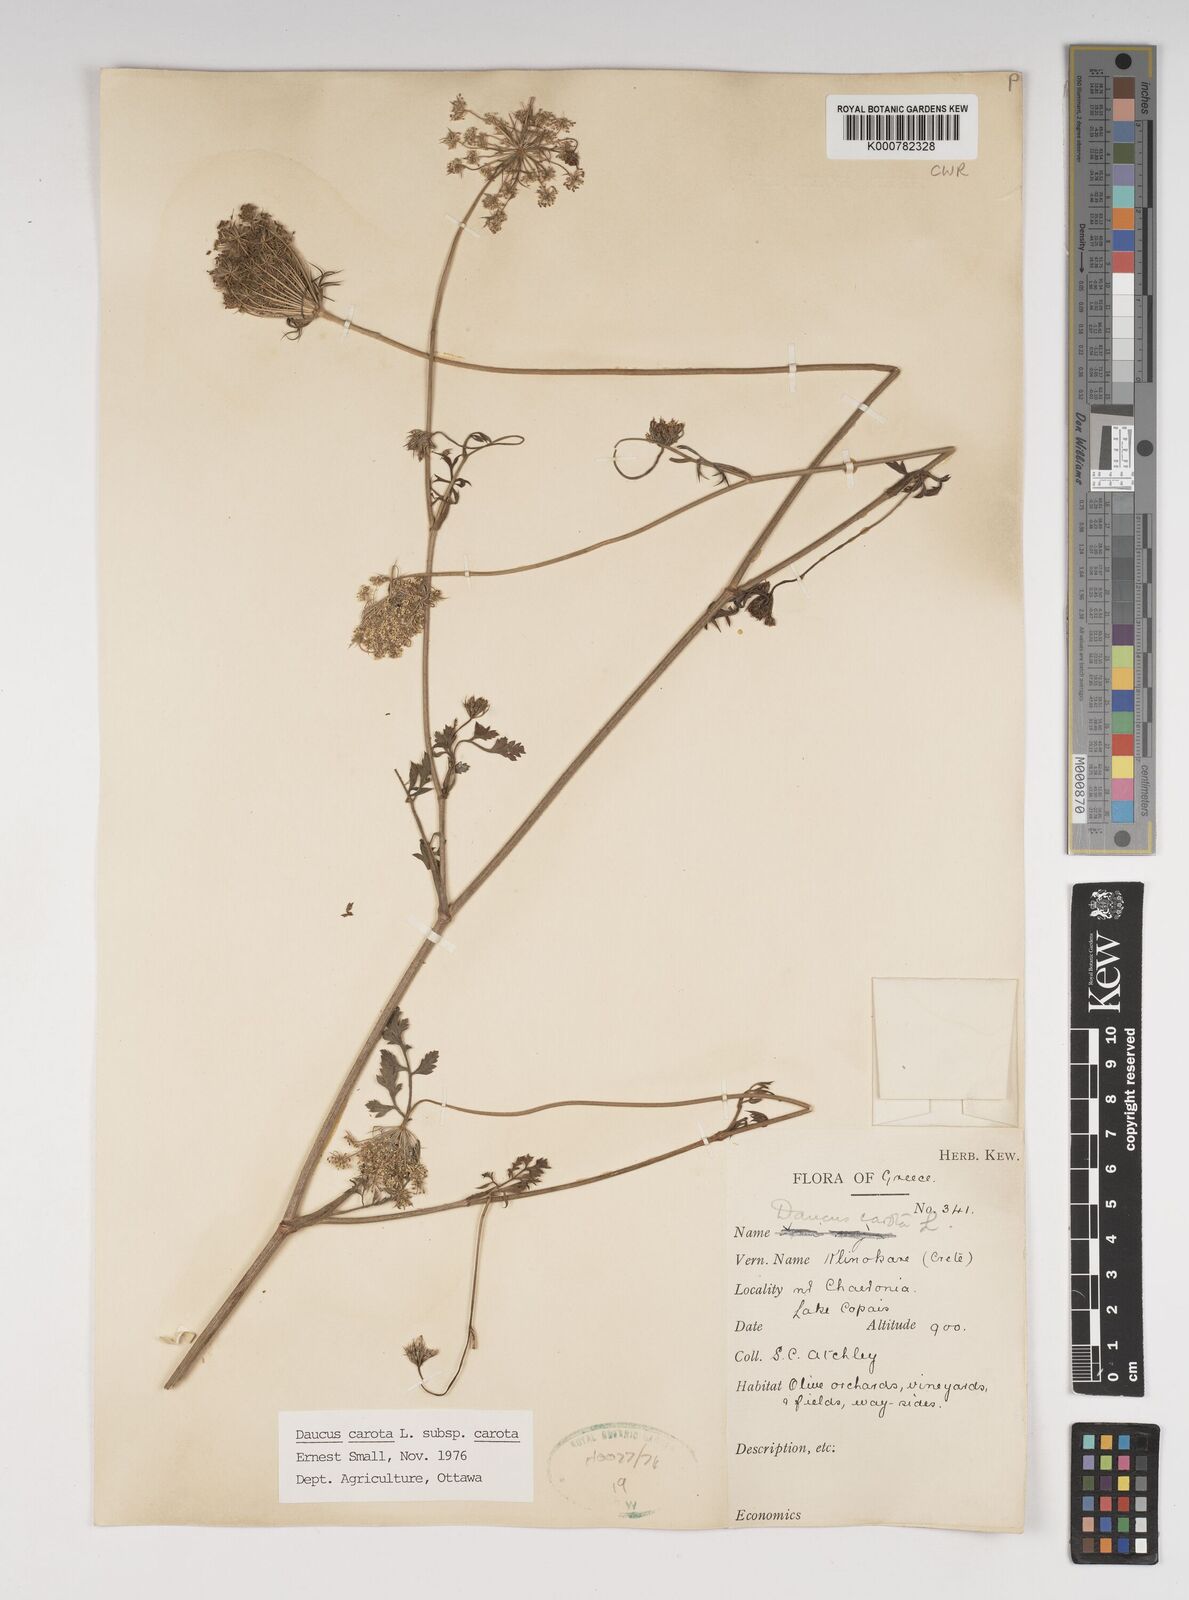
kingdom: Plantae
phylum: Tracheophyta
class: Magnoliopsida
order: Apiales
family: Apiaceae
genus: Daucus
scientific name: Daucus carota
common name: Wild carrot
